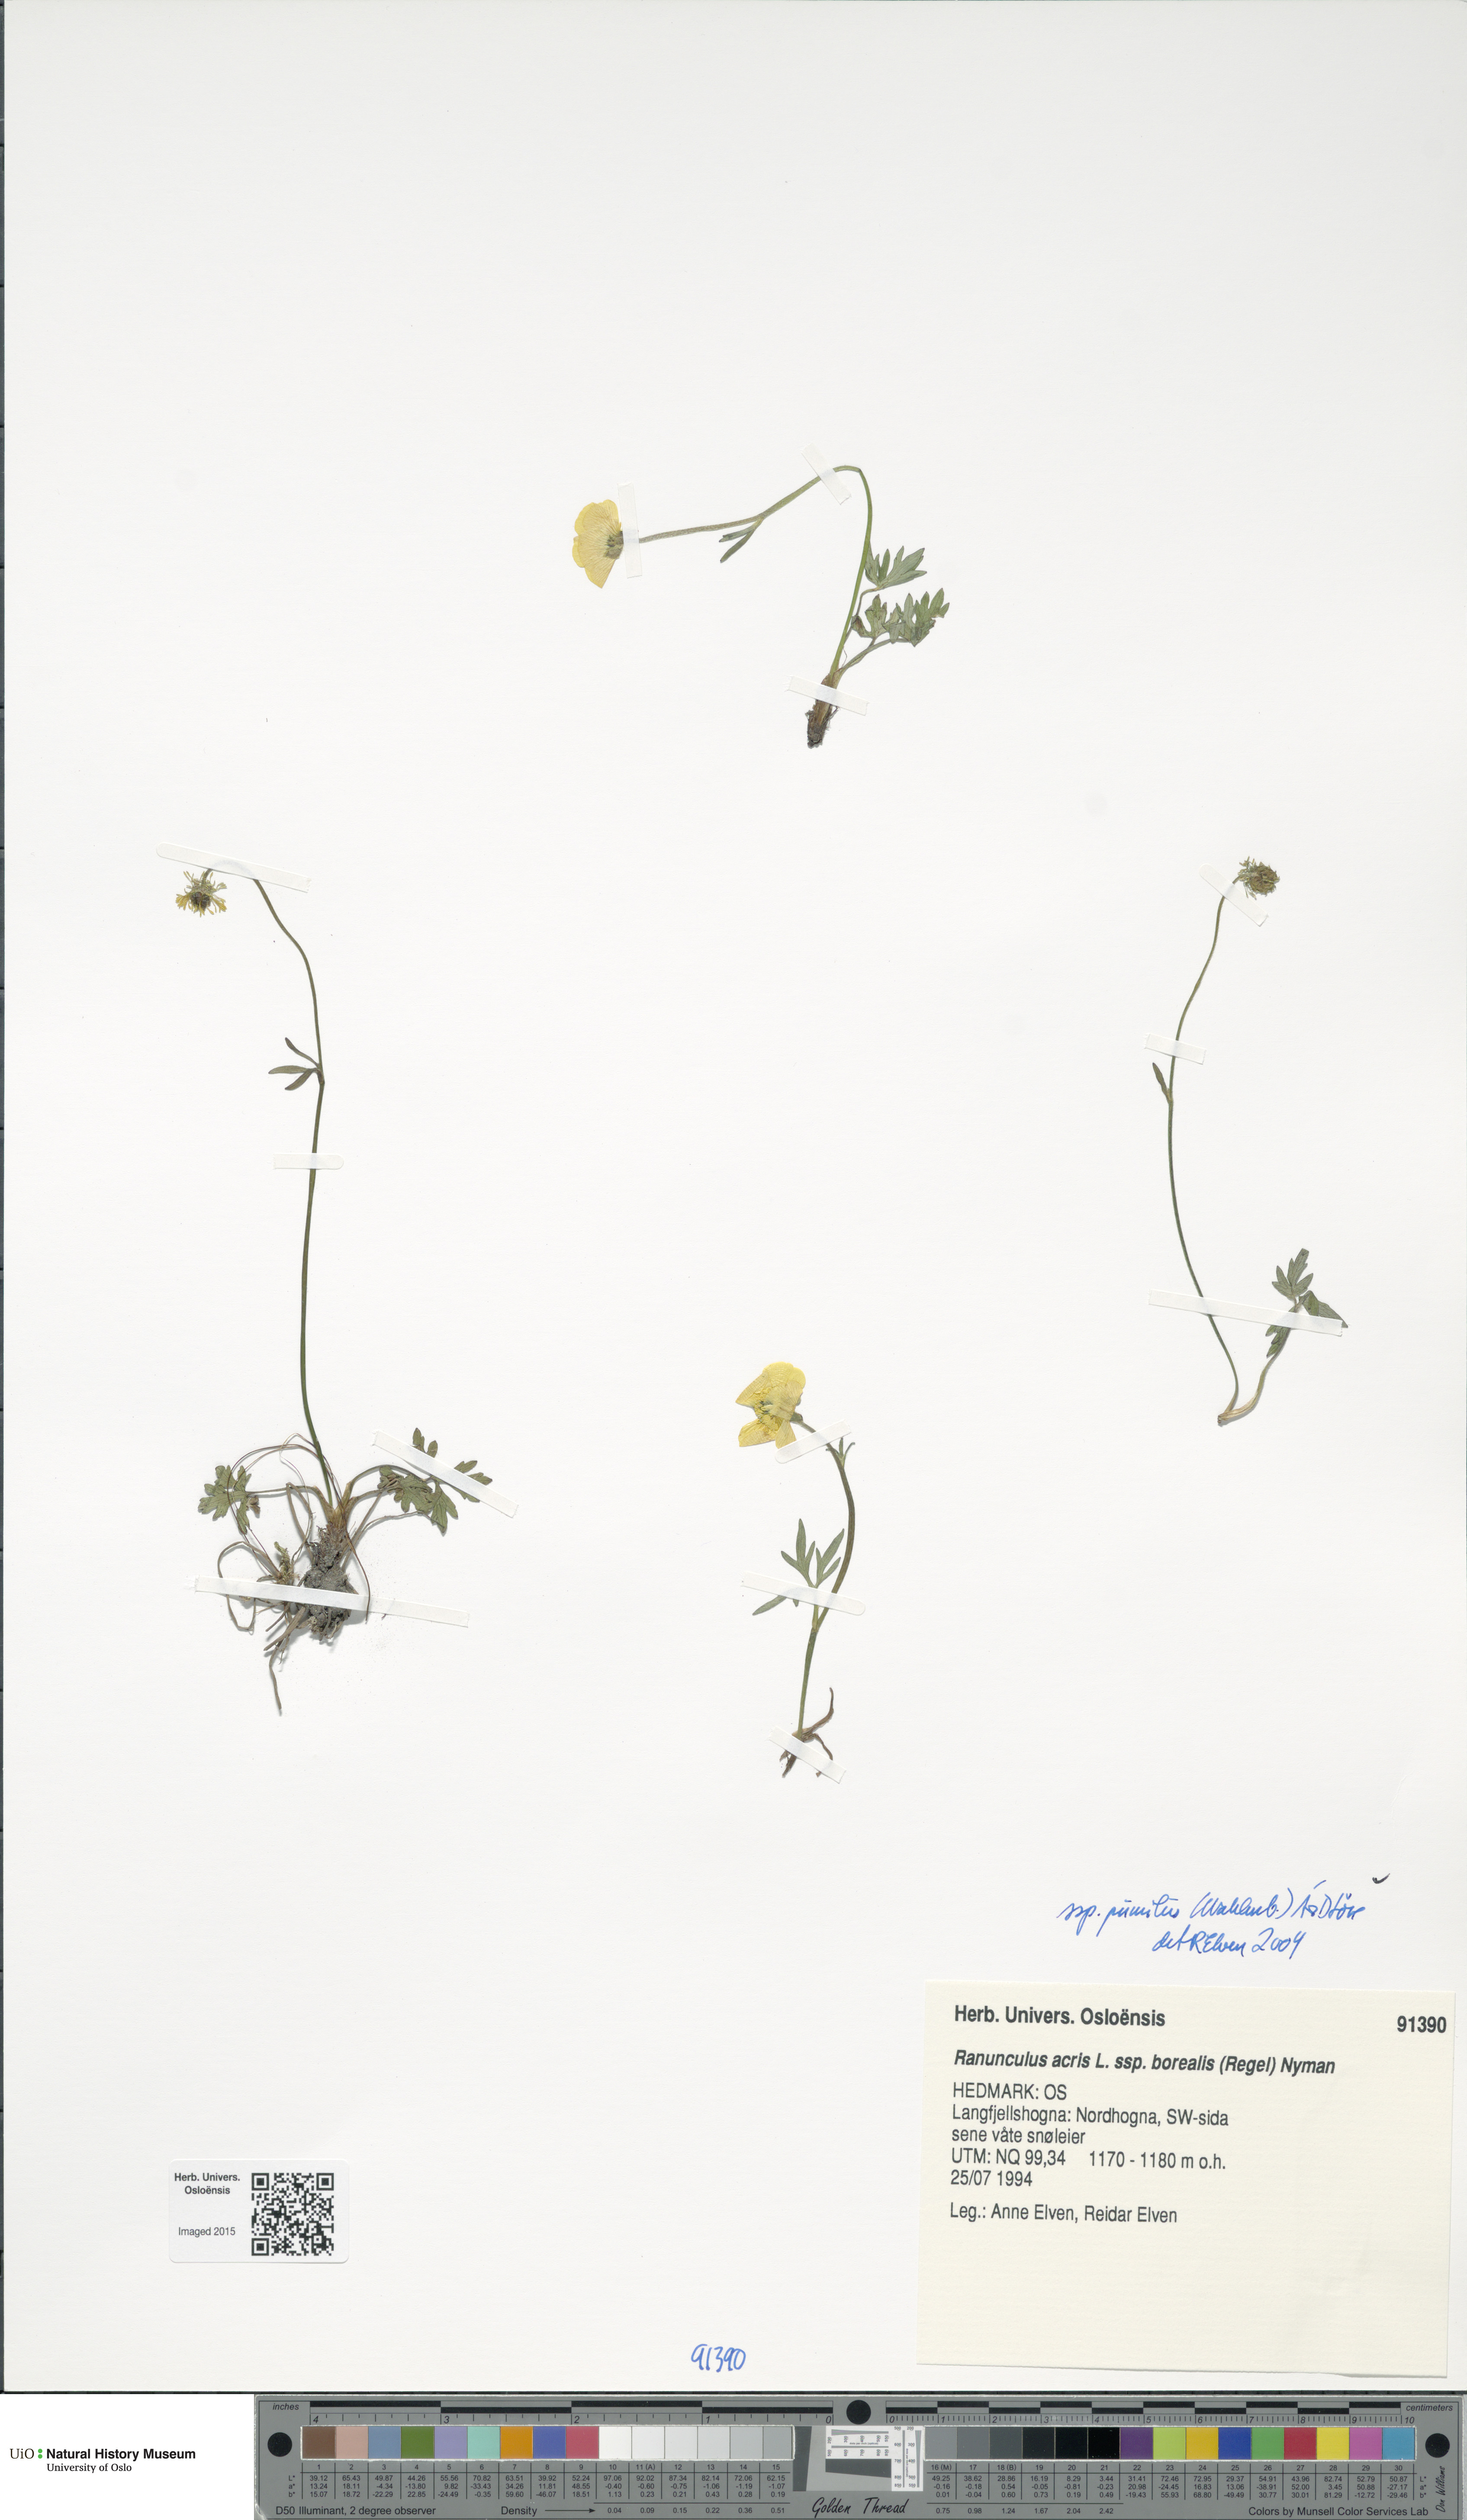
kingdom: Plantae
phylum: Tracheophyta
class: Magnoliopsida
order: Ranunculales
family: Ranunculaceae
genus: Ranunculus
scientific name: Ranunculus
